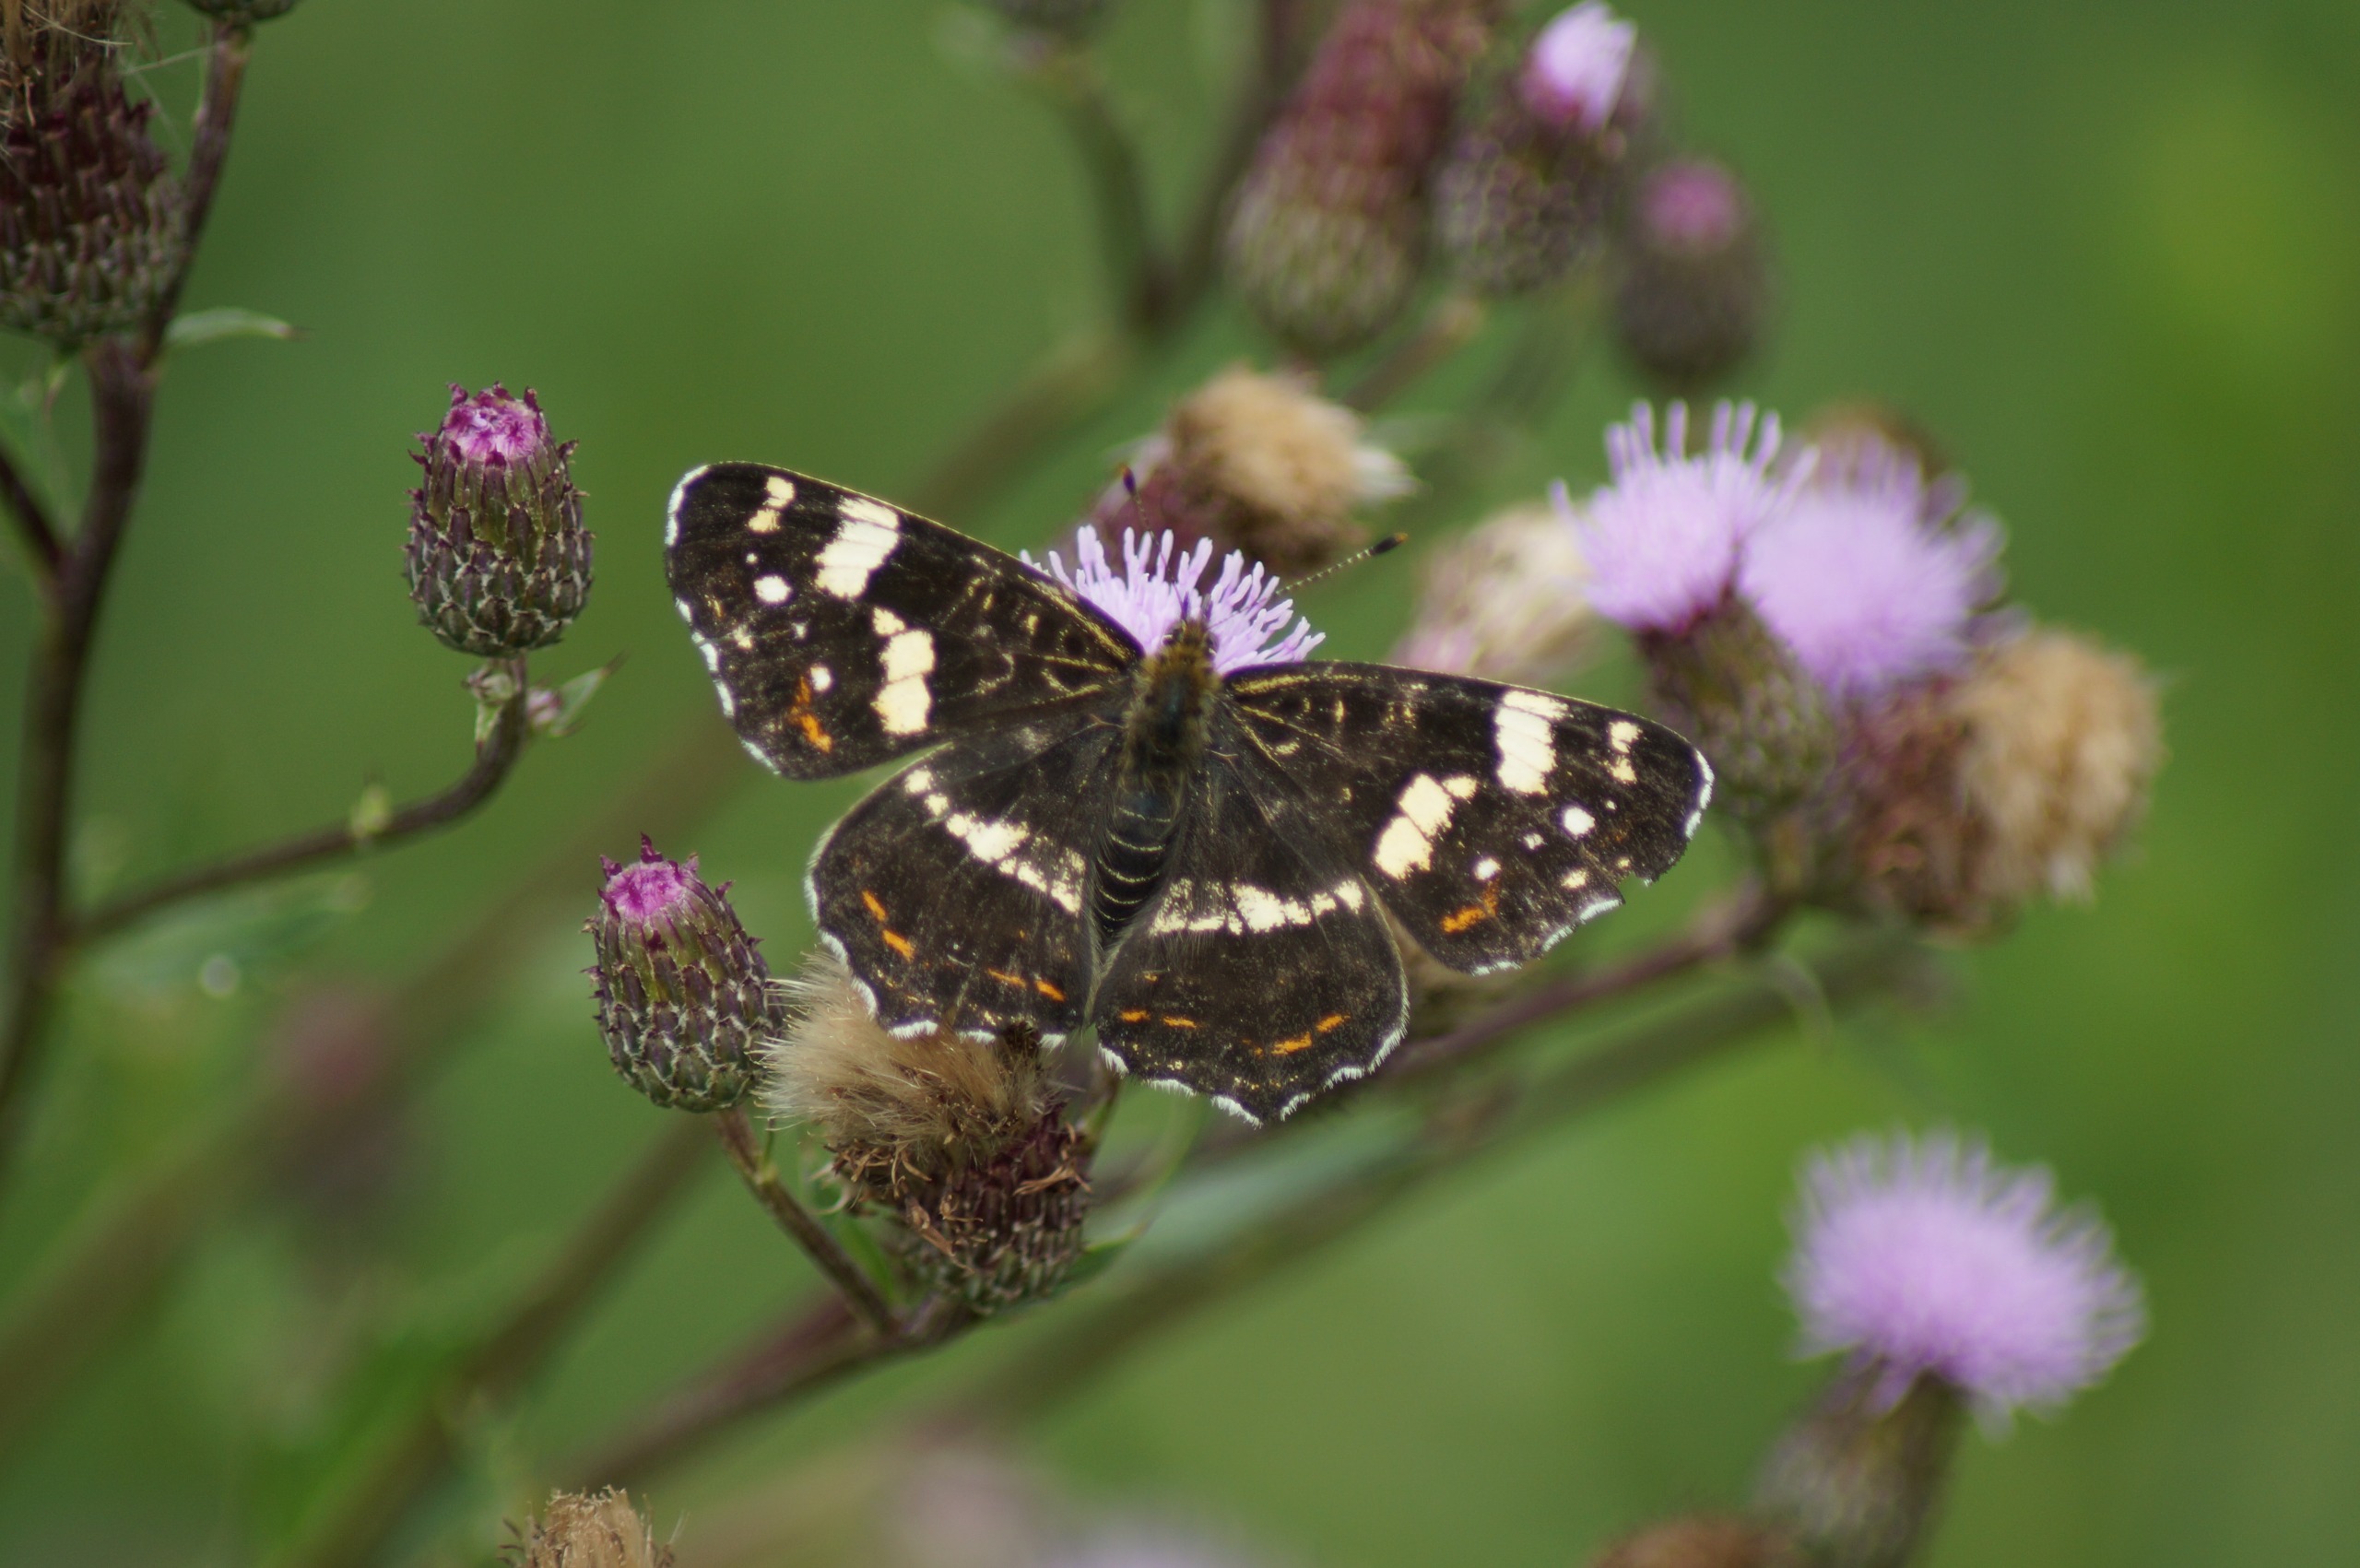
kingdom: Animalia
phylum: Arthropoda
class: Insecta
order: Lepidoptera
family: Nymphalidae
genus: Araschnia
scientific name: Araschnia levana
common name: Nældesommerfugl
